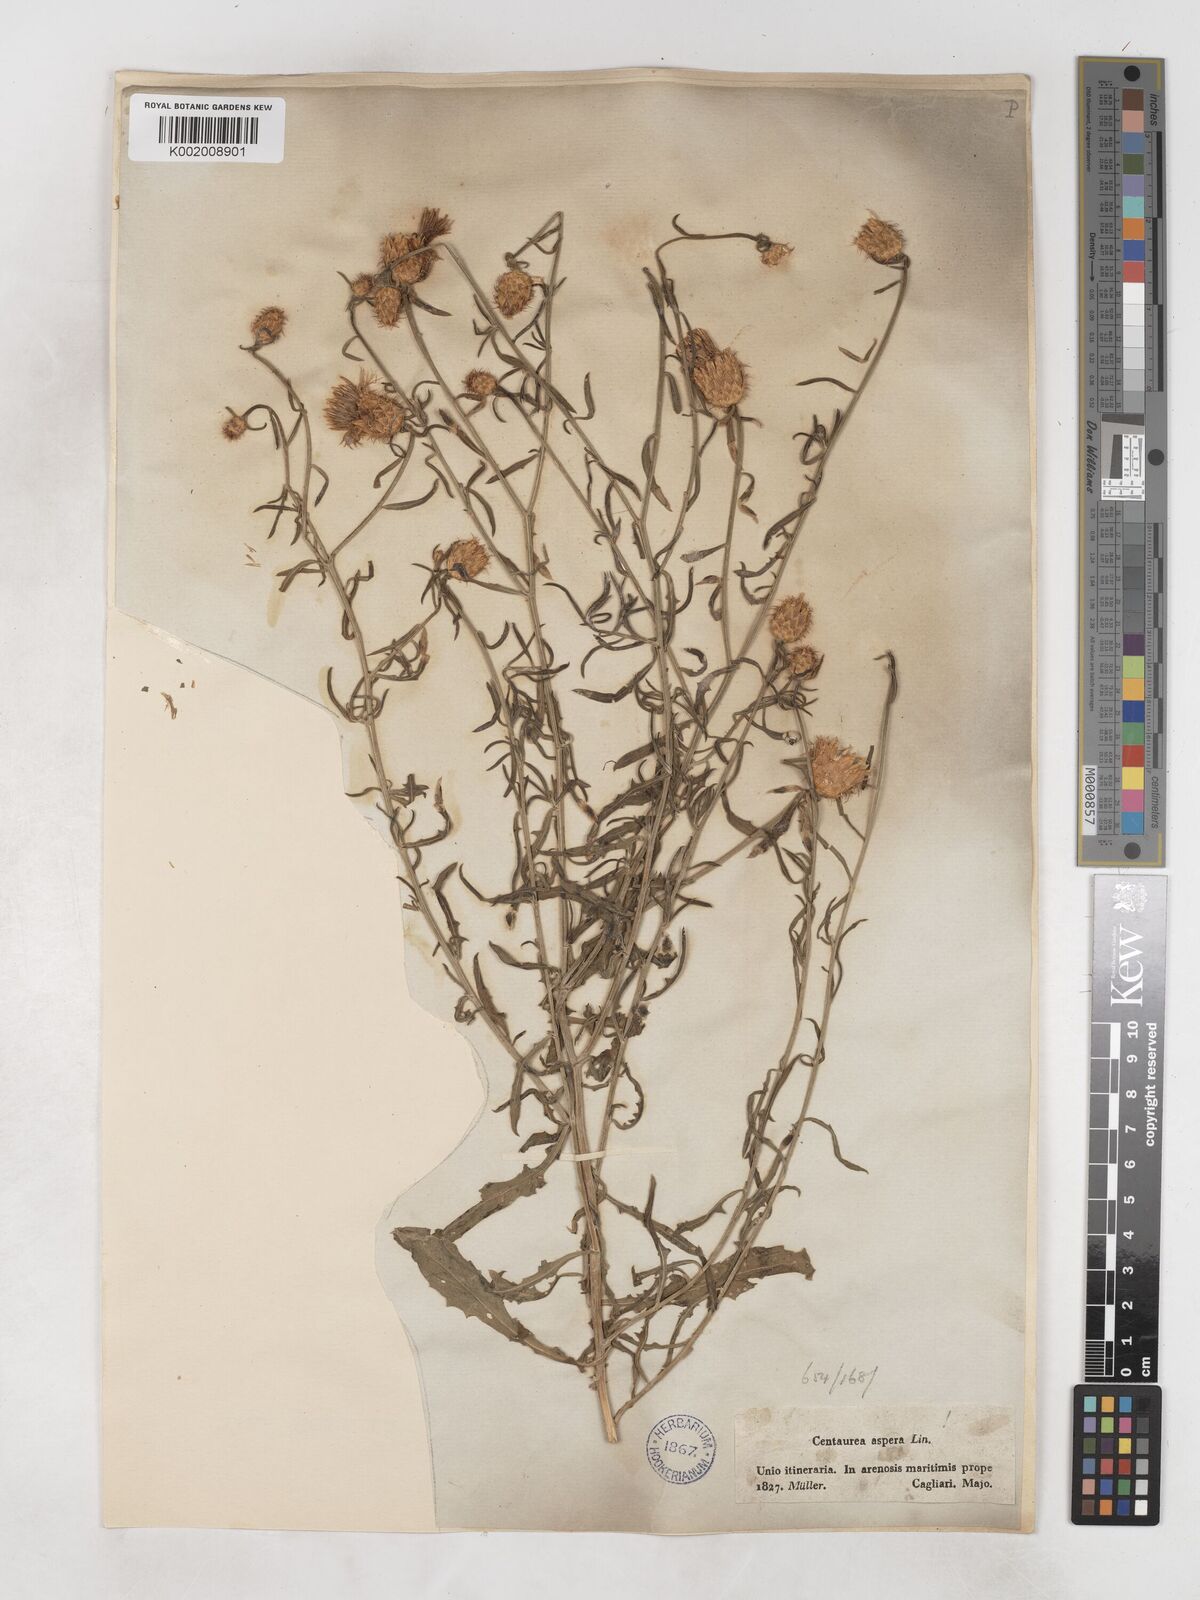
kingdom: Plantae
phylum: Tracheophyta
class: Magnoliopsida
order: Asterales
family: Asteraceae
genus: Centaurea
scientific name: Centaurea aspera
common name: Rough star-thistle
